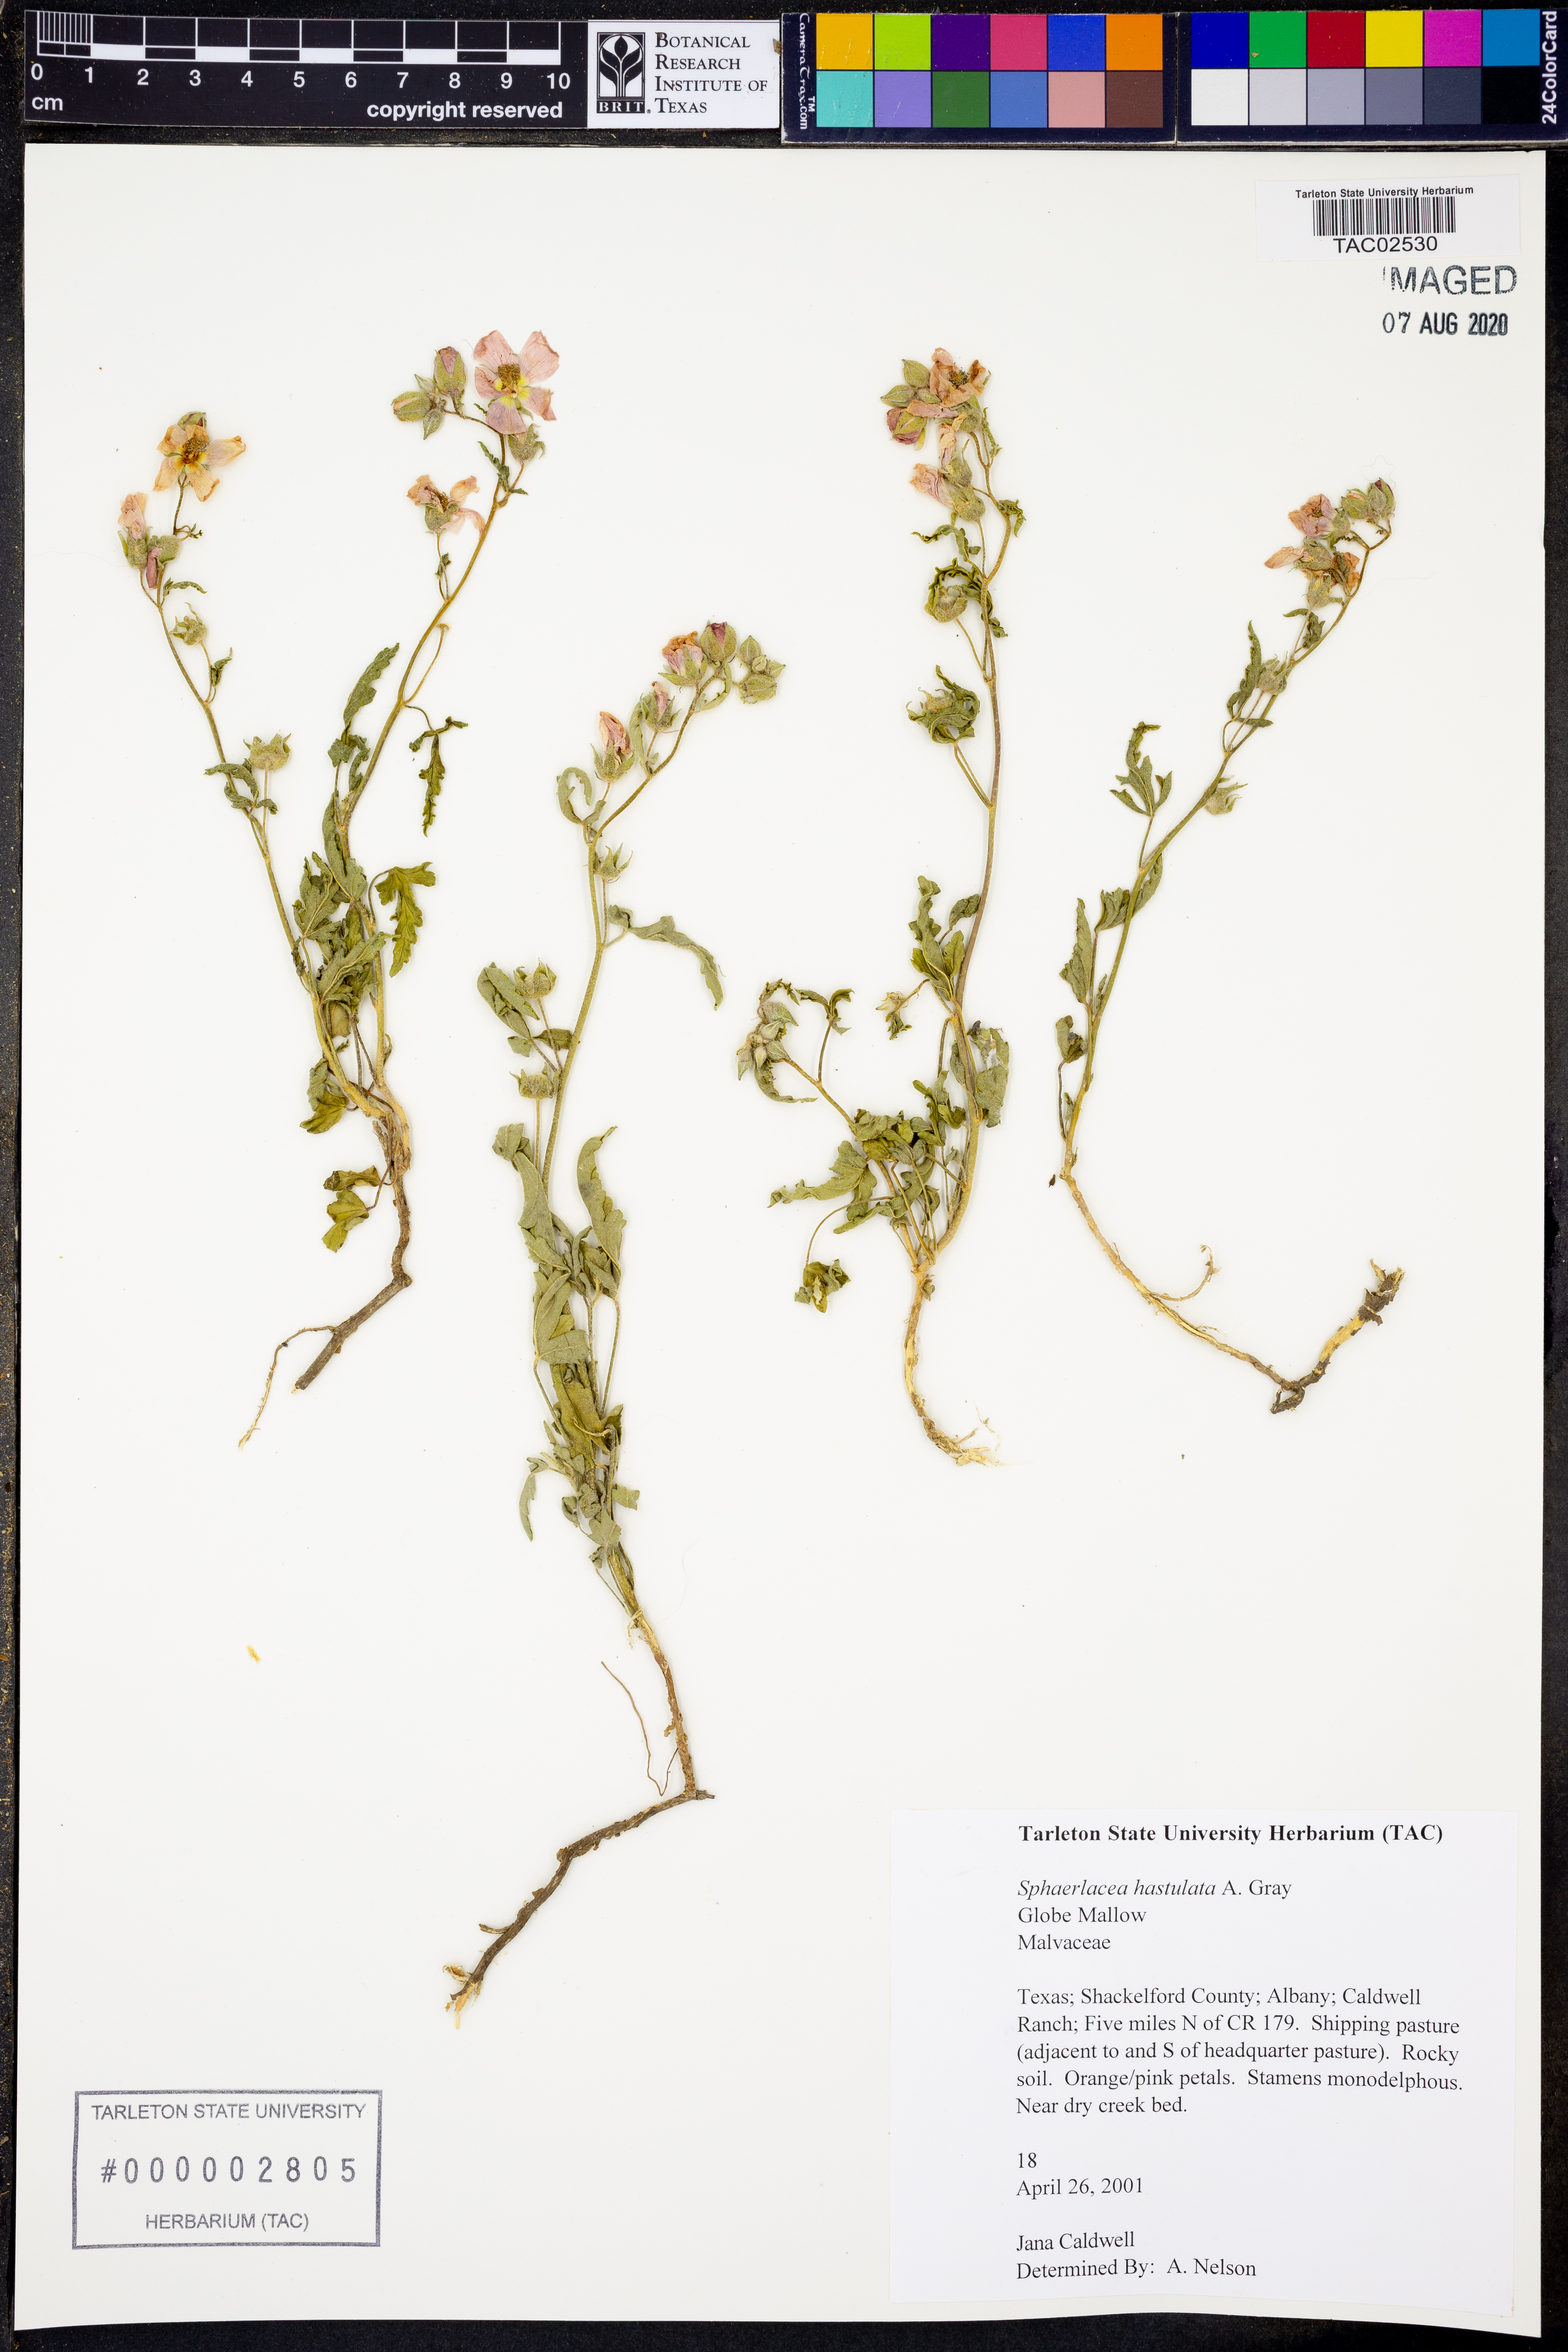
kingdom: Plantae
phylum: Tracheophyta
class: Magnoliopsida
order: Malvales
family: Malvaceae
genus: Sphaeralcea
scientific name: Sphaeralcea hastulata
